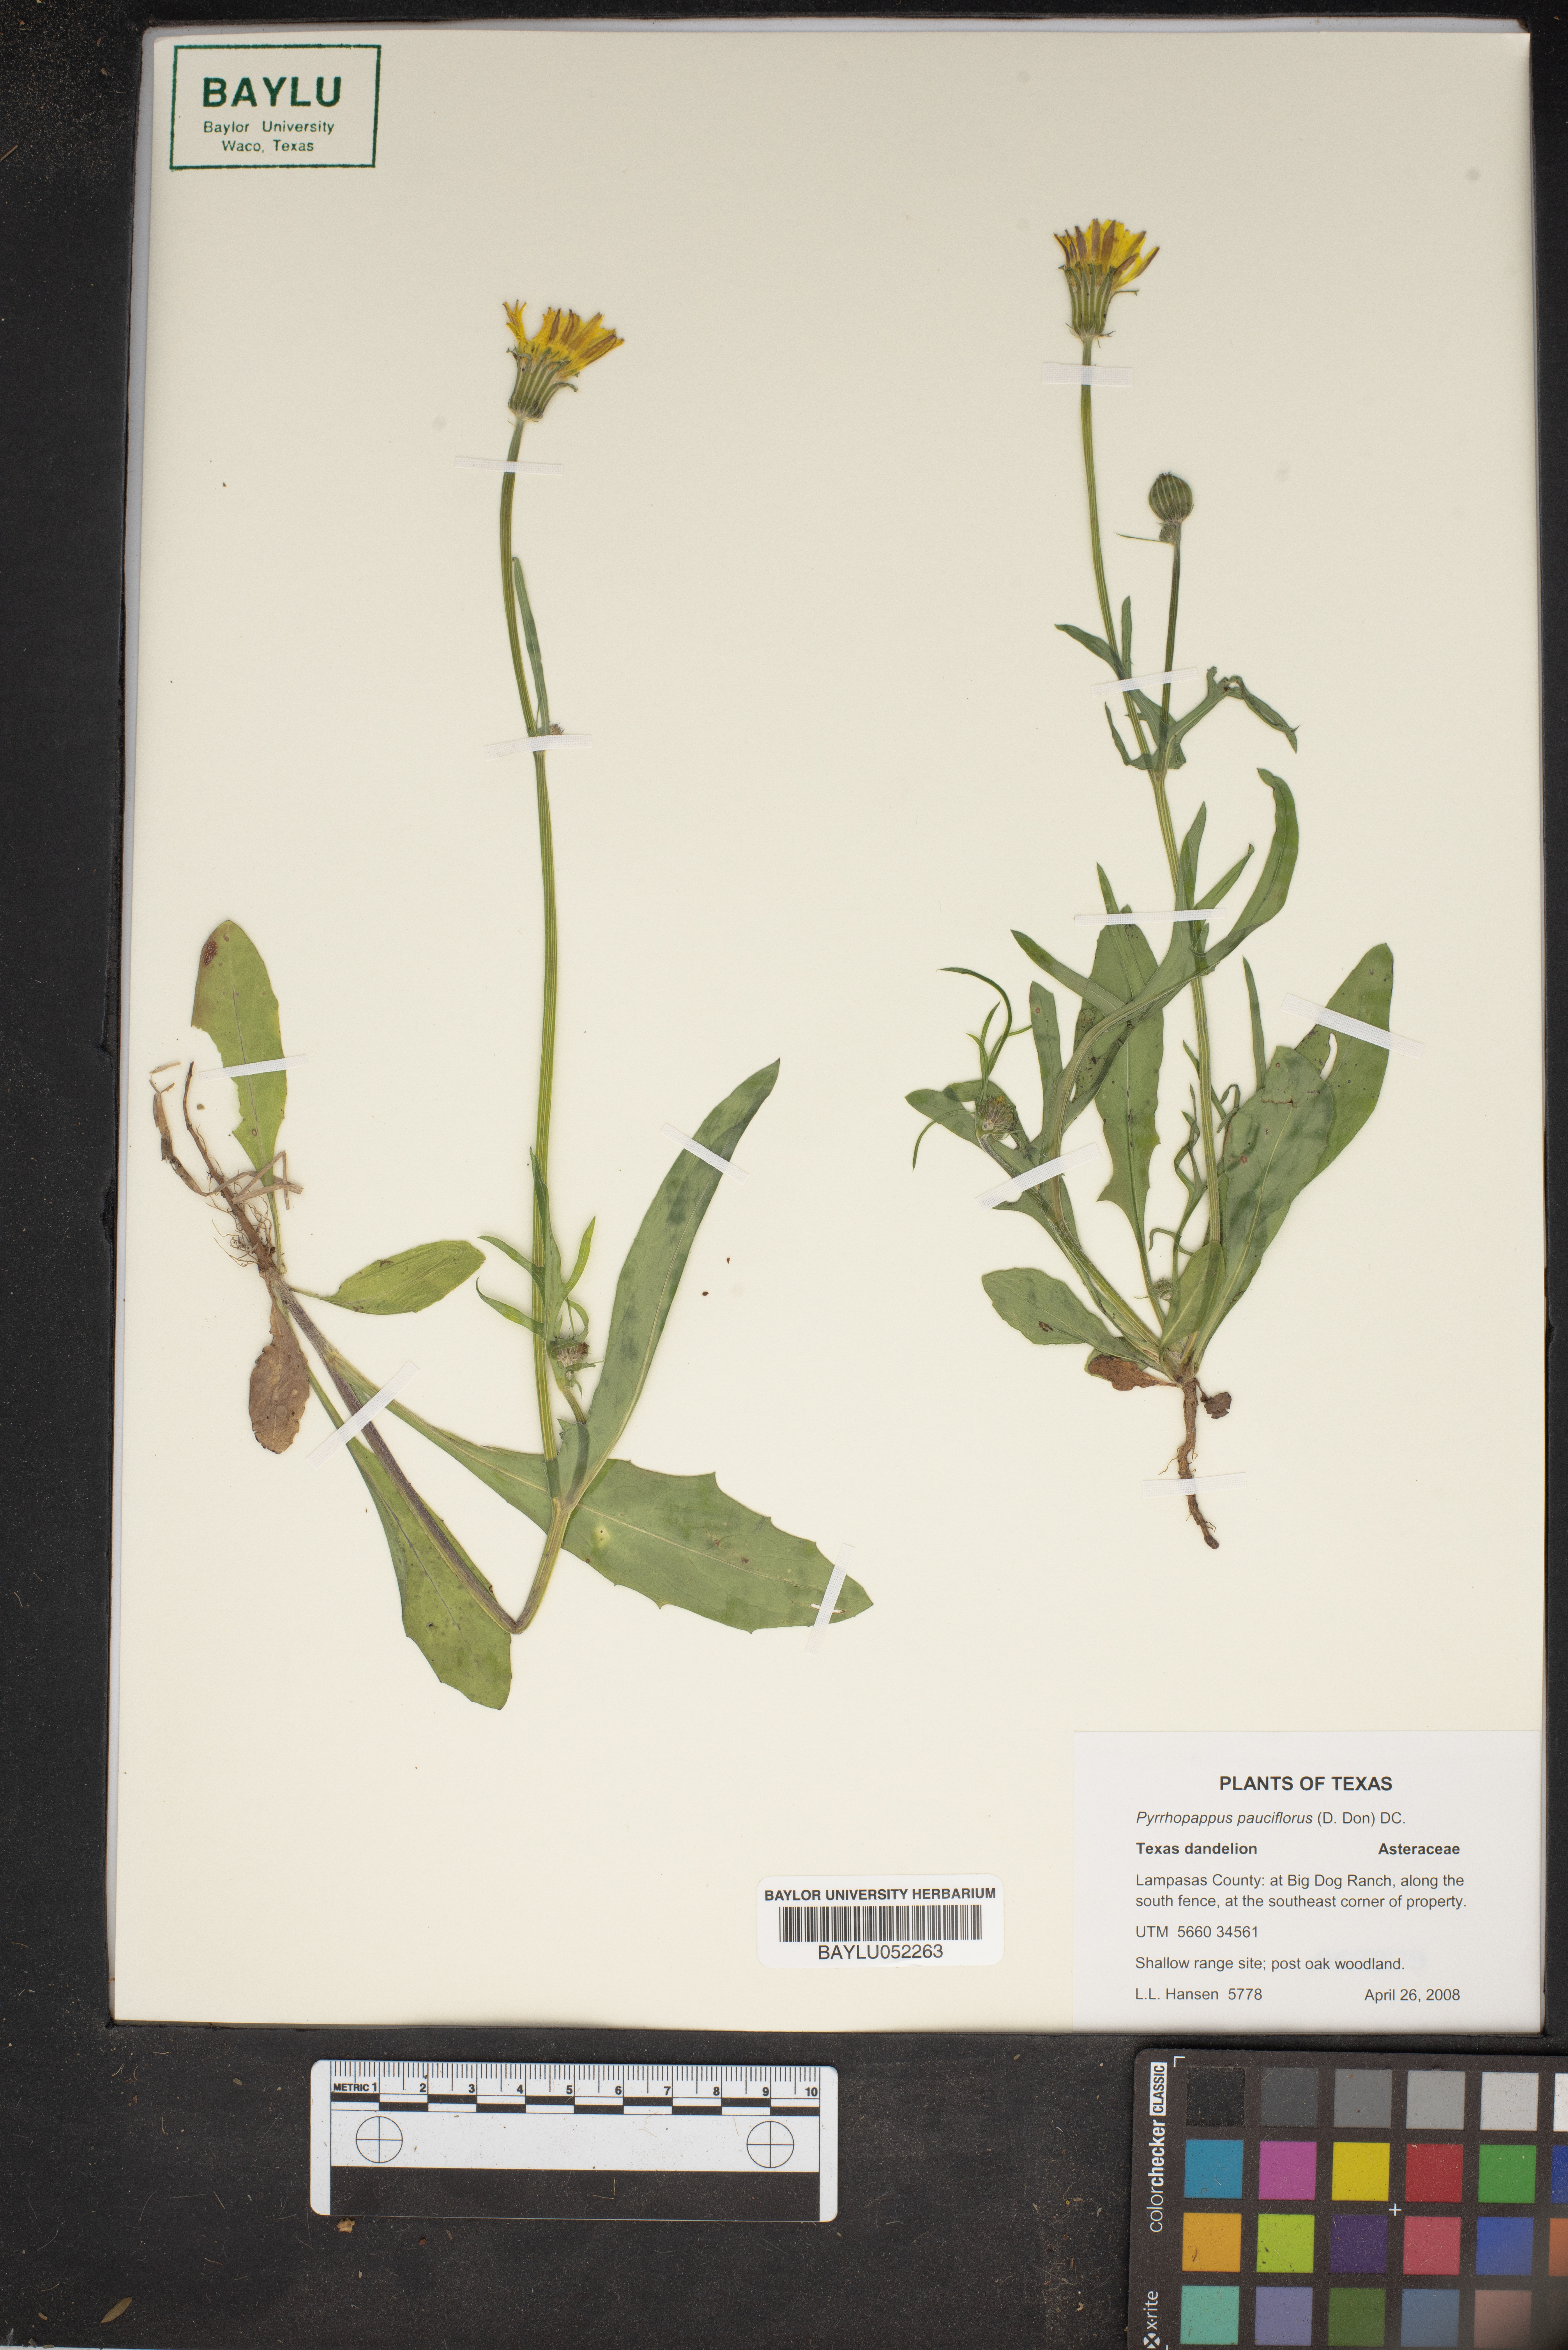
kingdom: Plantae
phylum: Tracheophyta
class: Magnoliopsida
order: Asterales
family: Asteraceae
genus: Pyrrhopappus
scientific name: Pyrrhopappus pauciflorus
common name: Texas false dandelion
